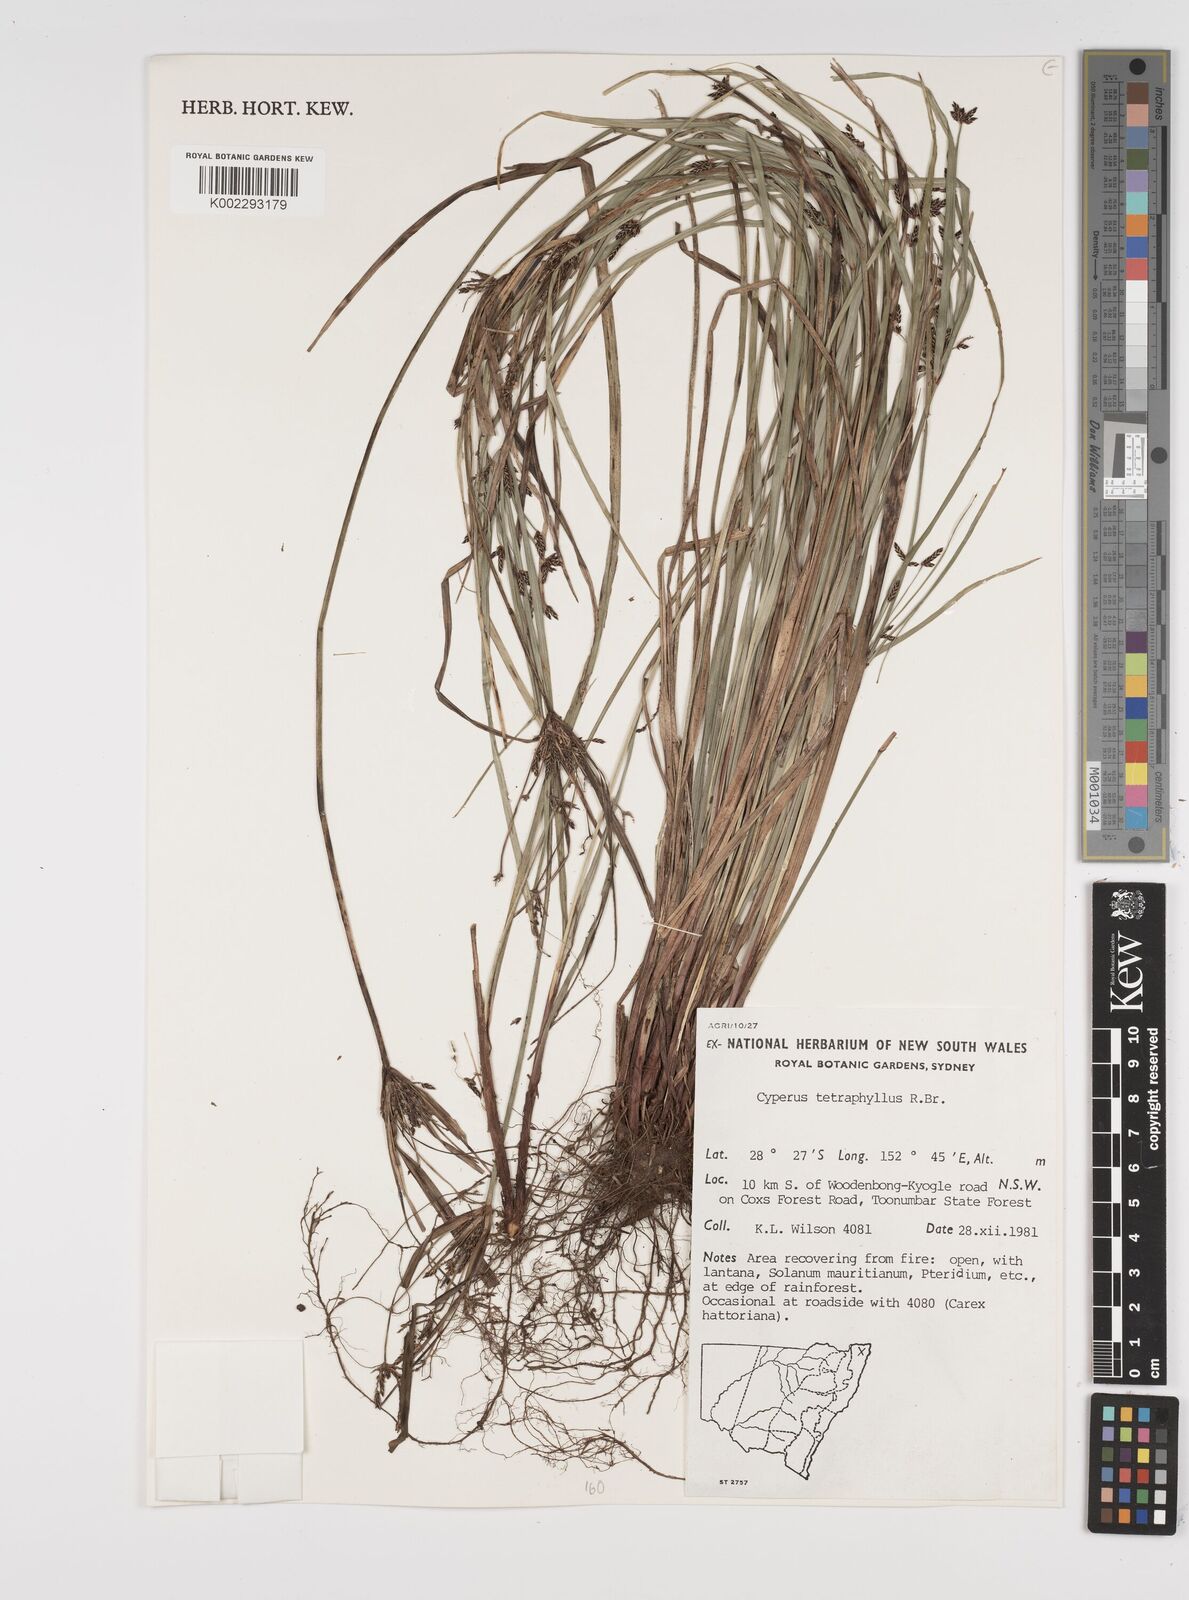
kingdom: Plantae
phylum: Tracheophyta
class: Liliopsida
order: Poales
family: Cyperaceae
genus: Cyperus
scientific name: Cyperus tetraphyllus
